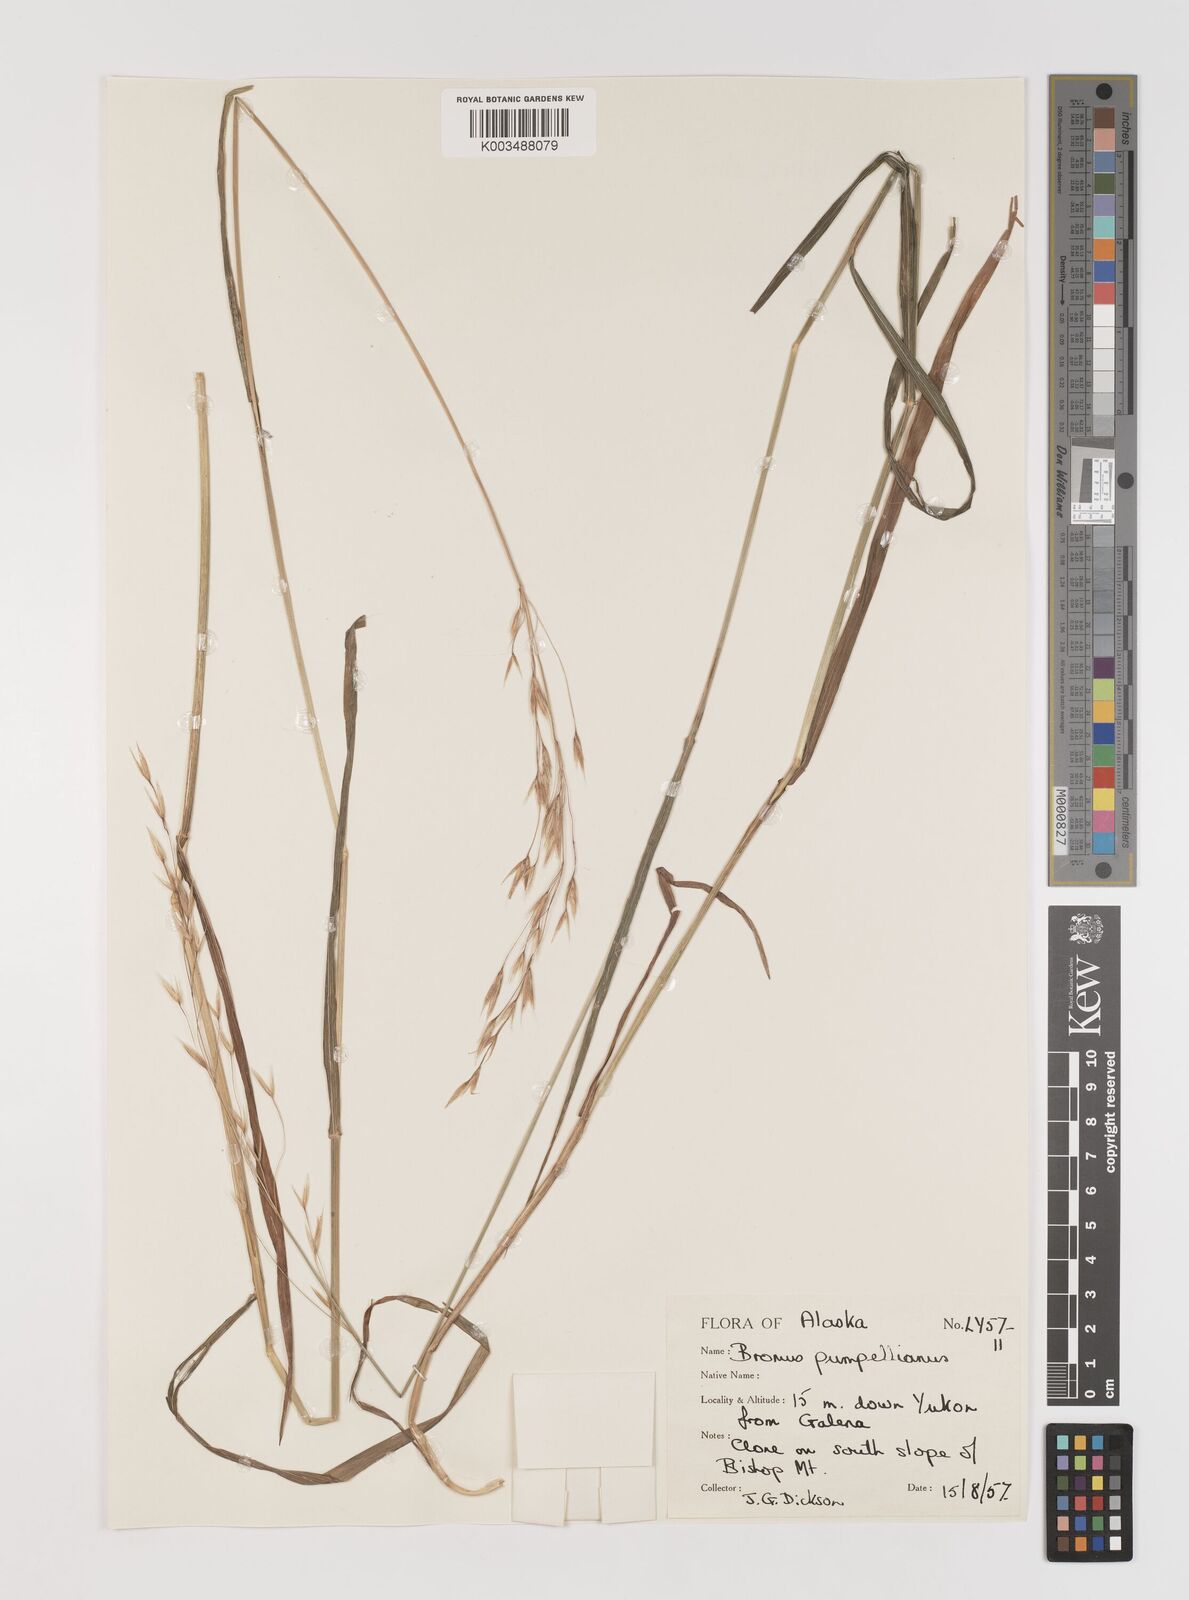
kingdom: Plantae
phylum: Tracheophyta
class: Liliopsida
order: Poales
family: Poaceae
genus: Bromus
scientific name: Bromus pumpellianus
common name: Pumpelly's brome
